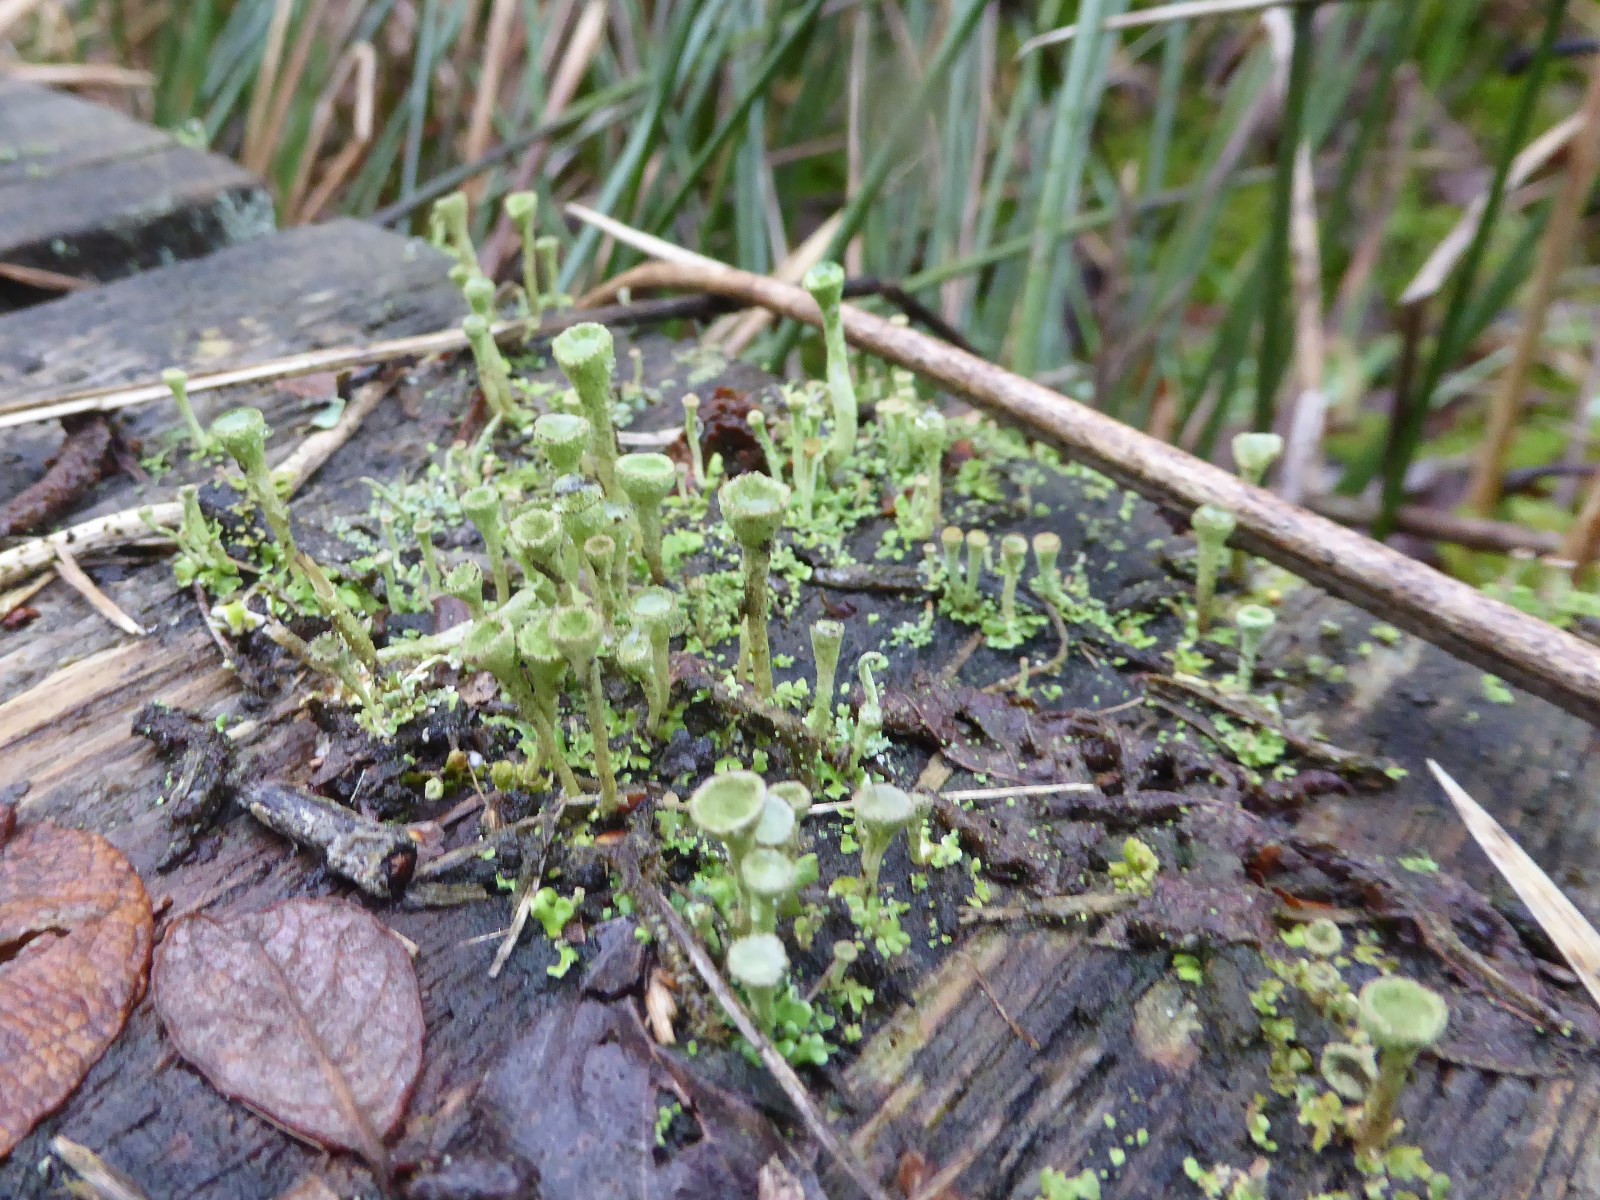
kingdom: Fungi
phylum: Ascomycota
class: Lecanoromycetes
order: Lecanorales
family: Cladoniaceae
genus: Cladonia
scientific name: Cladonia
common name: brungrøn bægerlav
